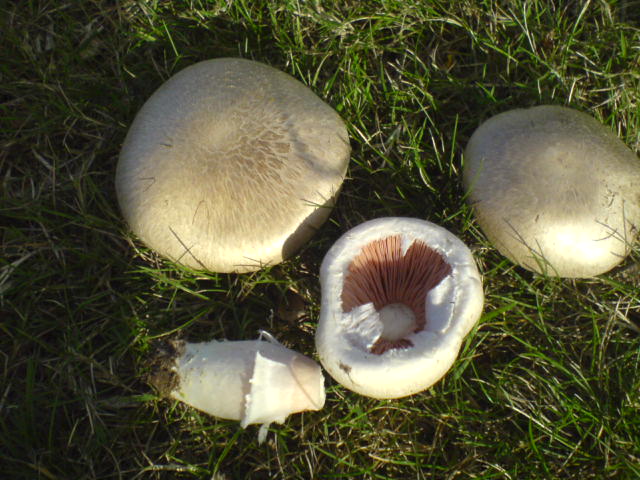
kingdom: Fungi
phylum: Basidiomycota
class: Agaricomycetes
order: Agaricales
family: Agaricaceae
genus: Agaricus
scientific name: Agaricus campestris
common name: mark-champignon
